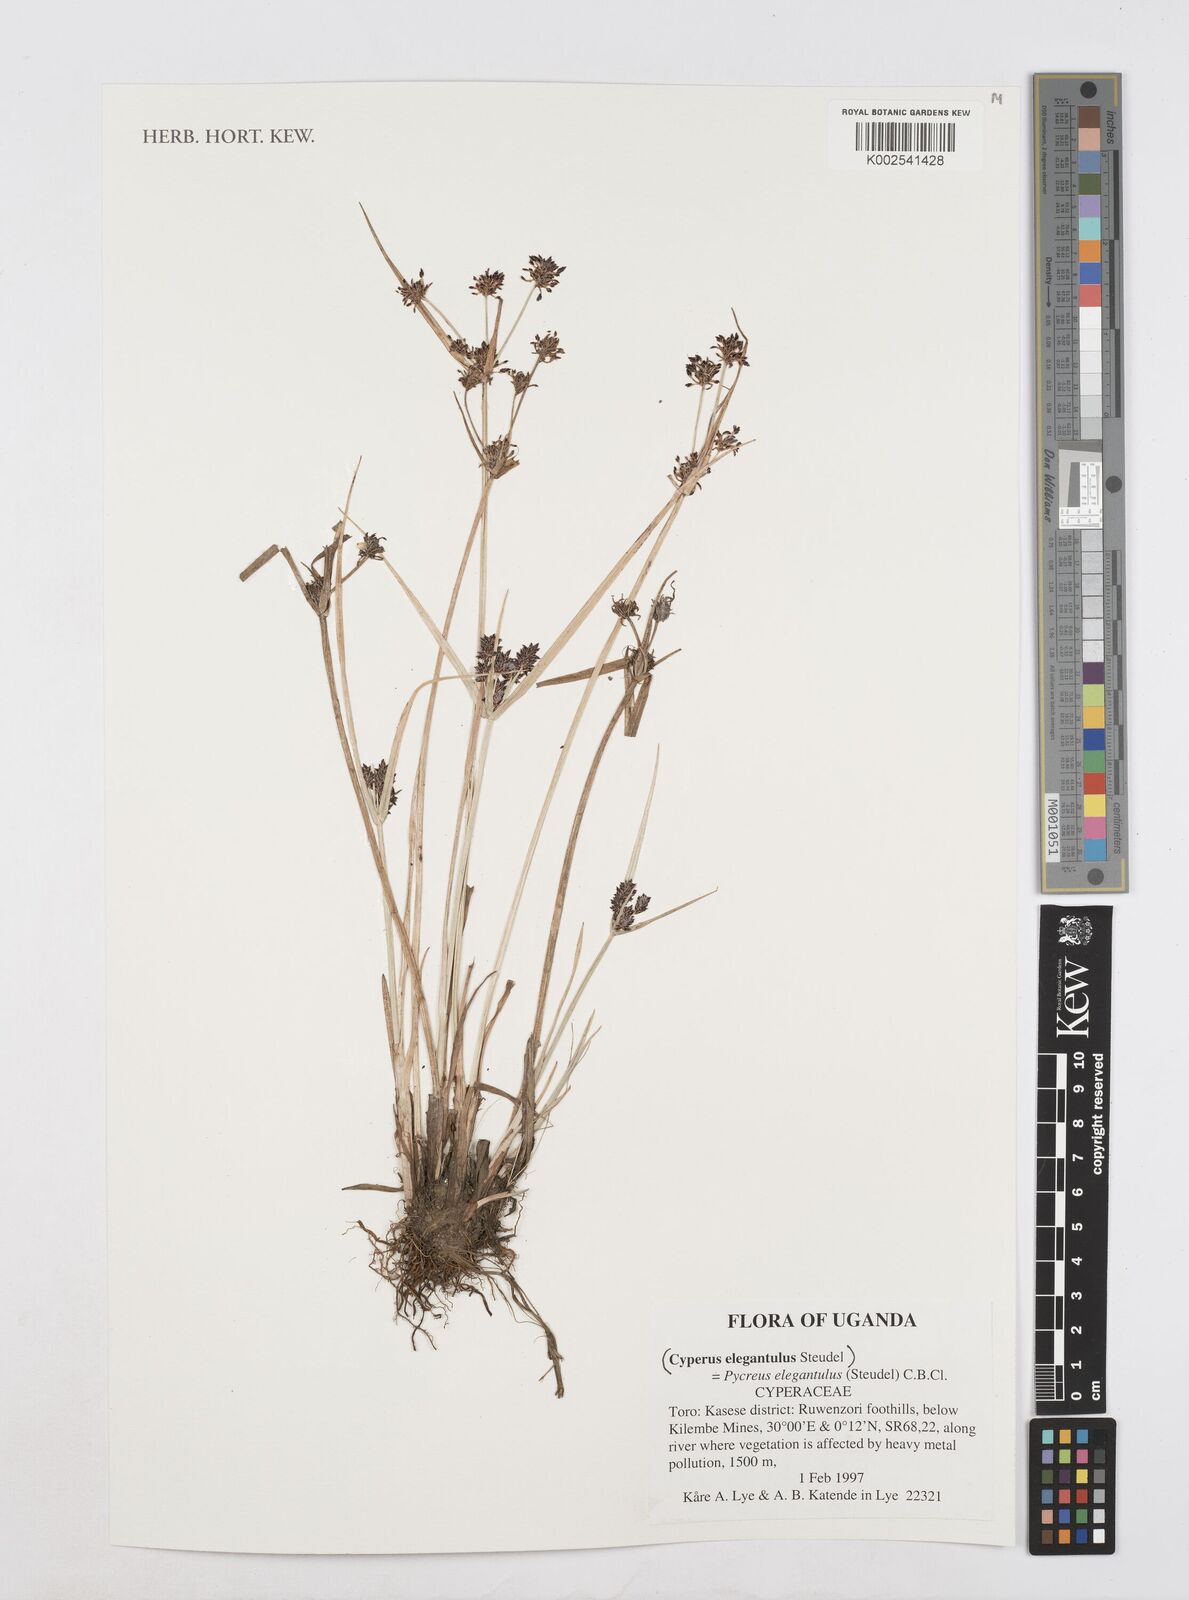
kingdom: Plantae
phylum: Tracheophyta
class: Liliopsida
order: Poales
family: Cyperaceae
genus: Cyperus
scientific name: Cyperus elegantulus
